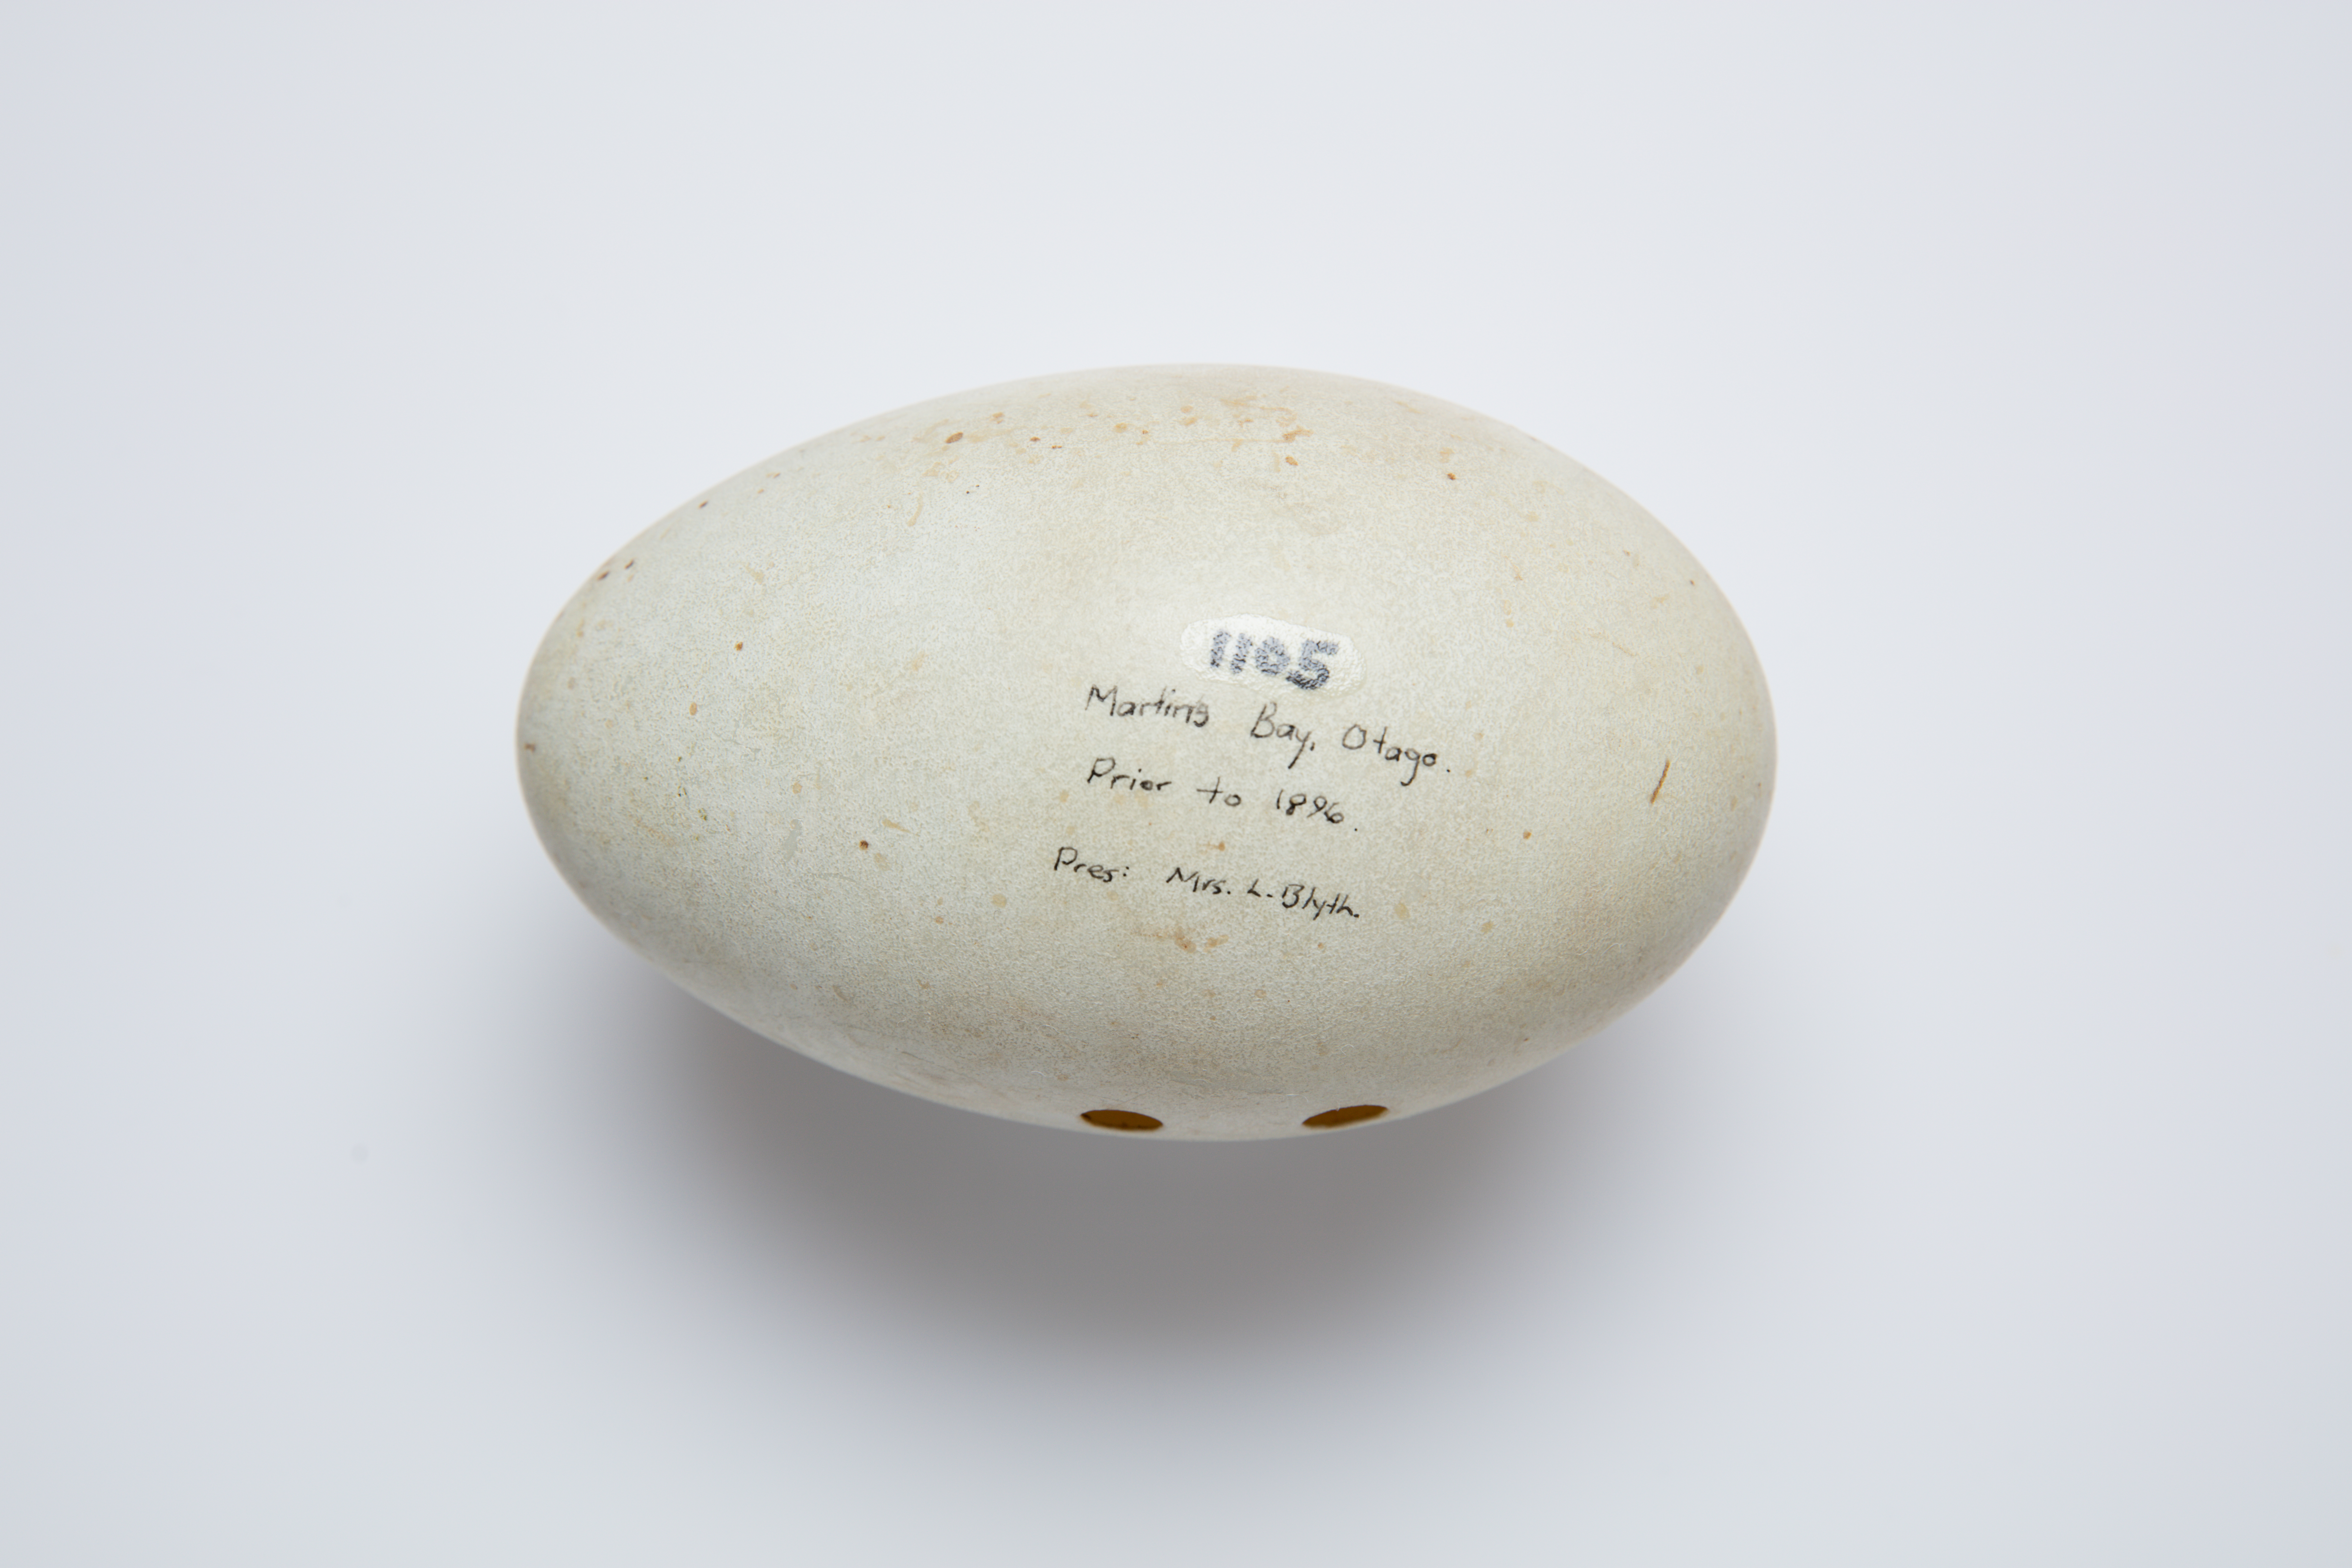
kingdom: Animalia
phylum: Chordata
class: Aves
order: Anseriformes
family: Anatidae
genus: Cygnus
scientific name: Cygnus atratus
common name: Black swan
